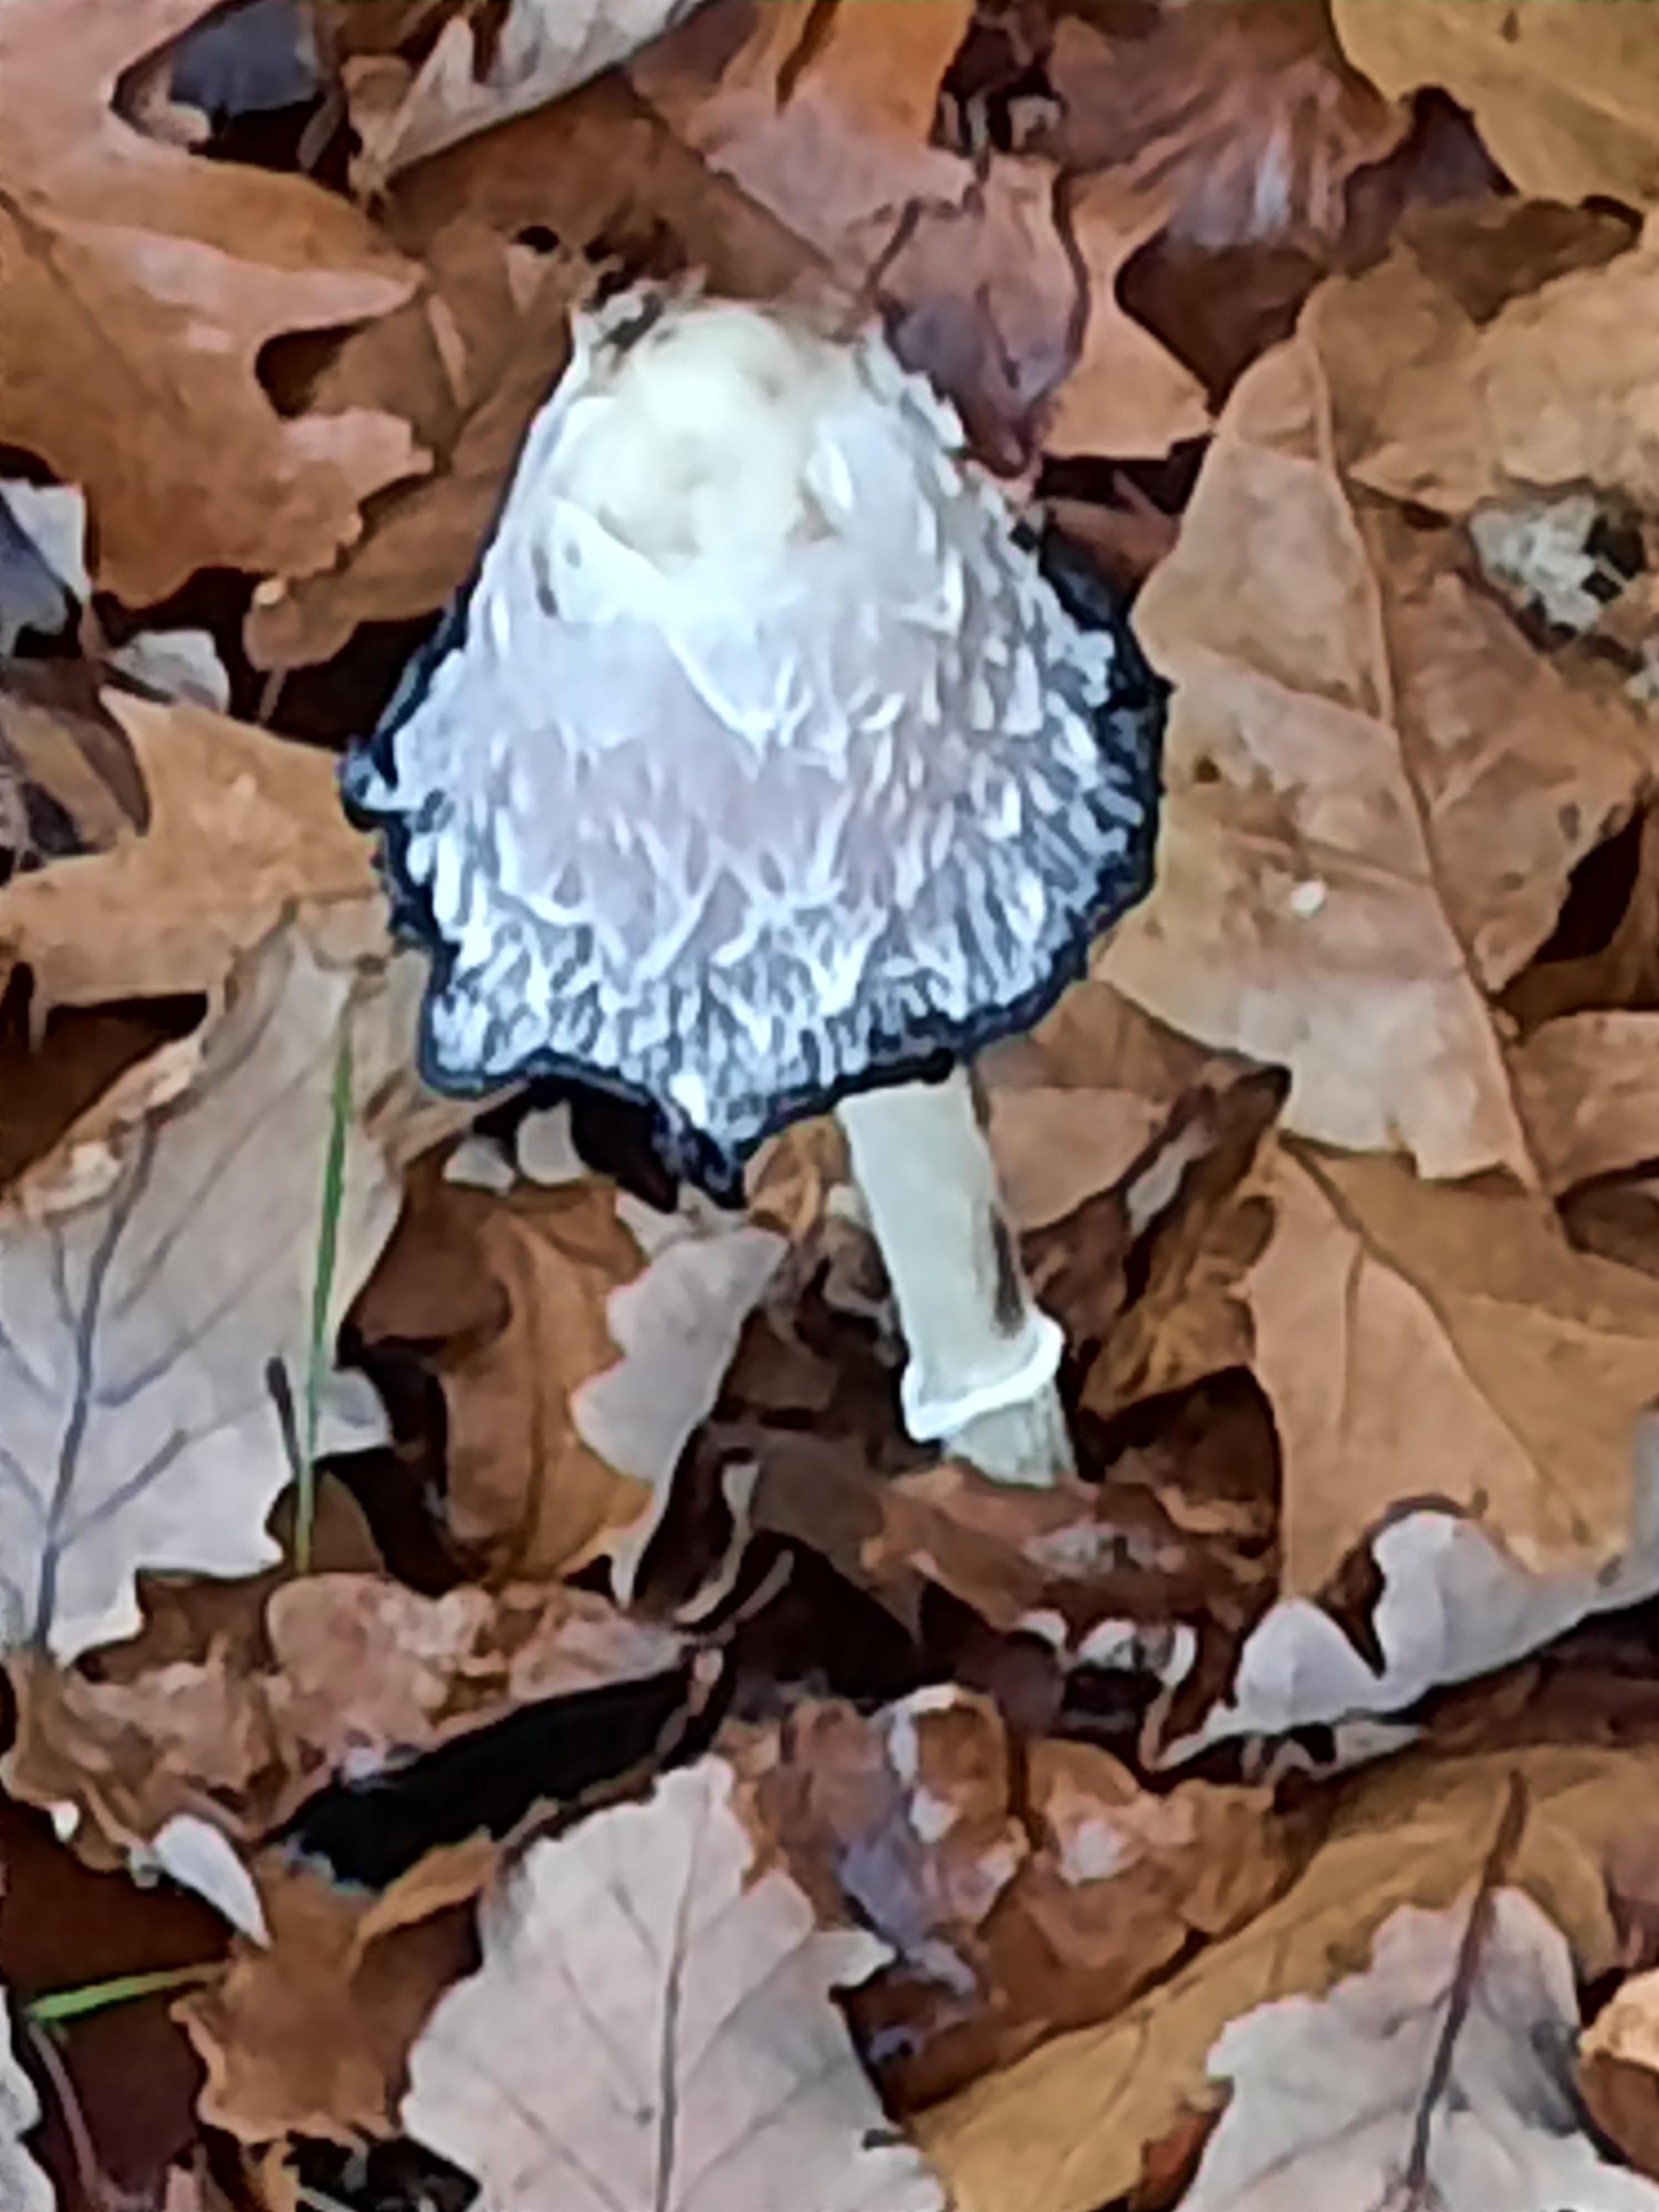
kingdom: Fungi
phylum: Basidiomycota
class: Agaricomycetes
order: Agaricales
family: Agaricaceae
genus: Coprinus
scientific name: Coprinus comatus
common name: stor parykhat
